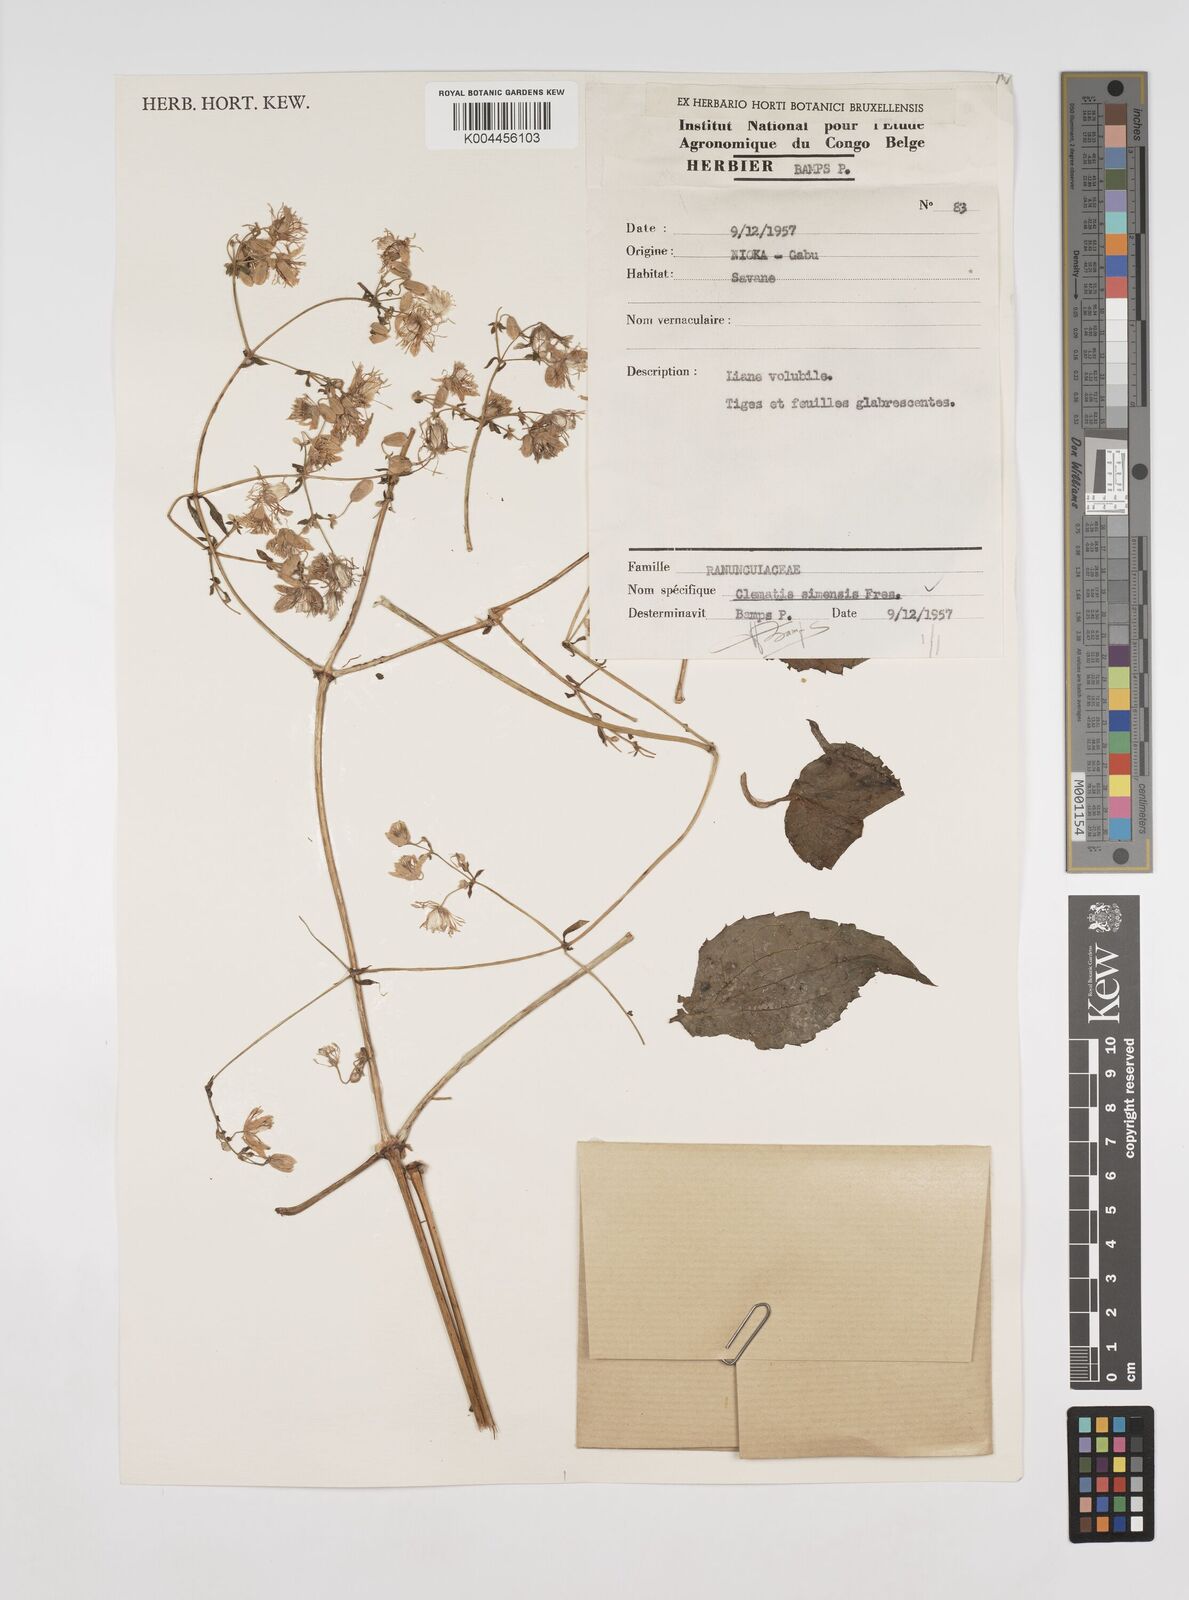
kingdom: Plantae
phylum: Tracheophyta
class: Magnoliopsida
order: Ranunculales
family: Ranunculaceae
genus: Clematis
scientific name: Clematis simensis
